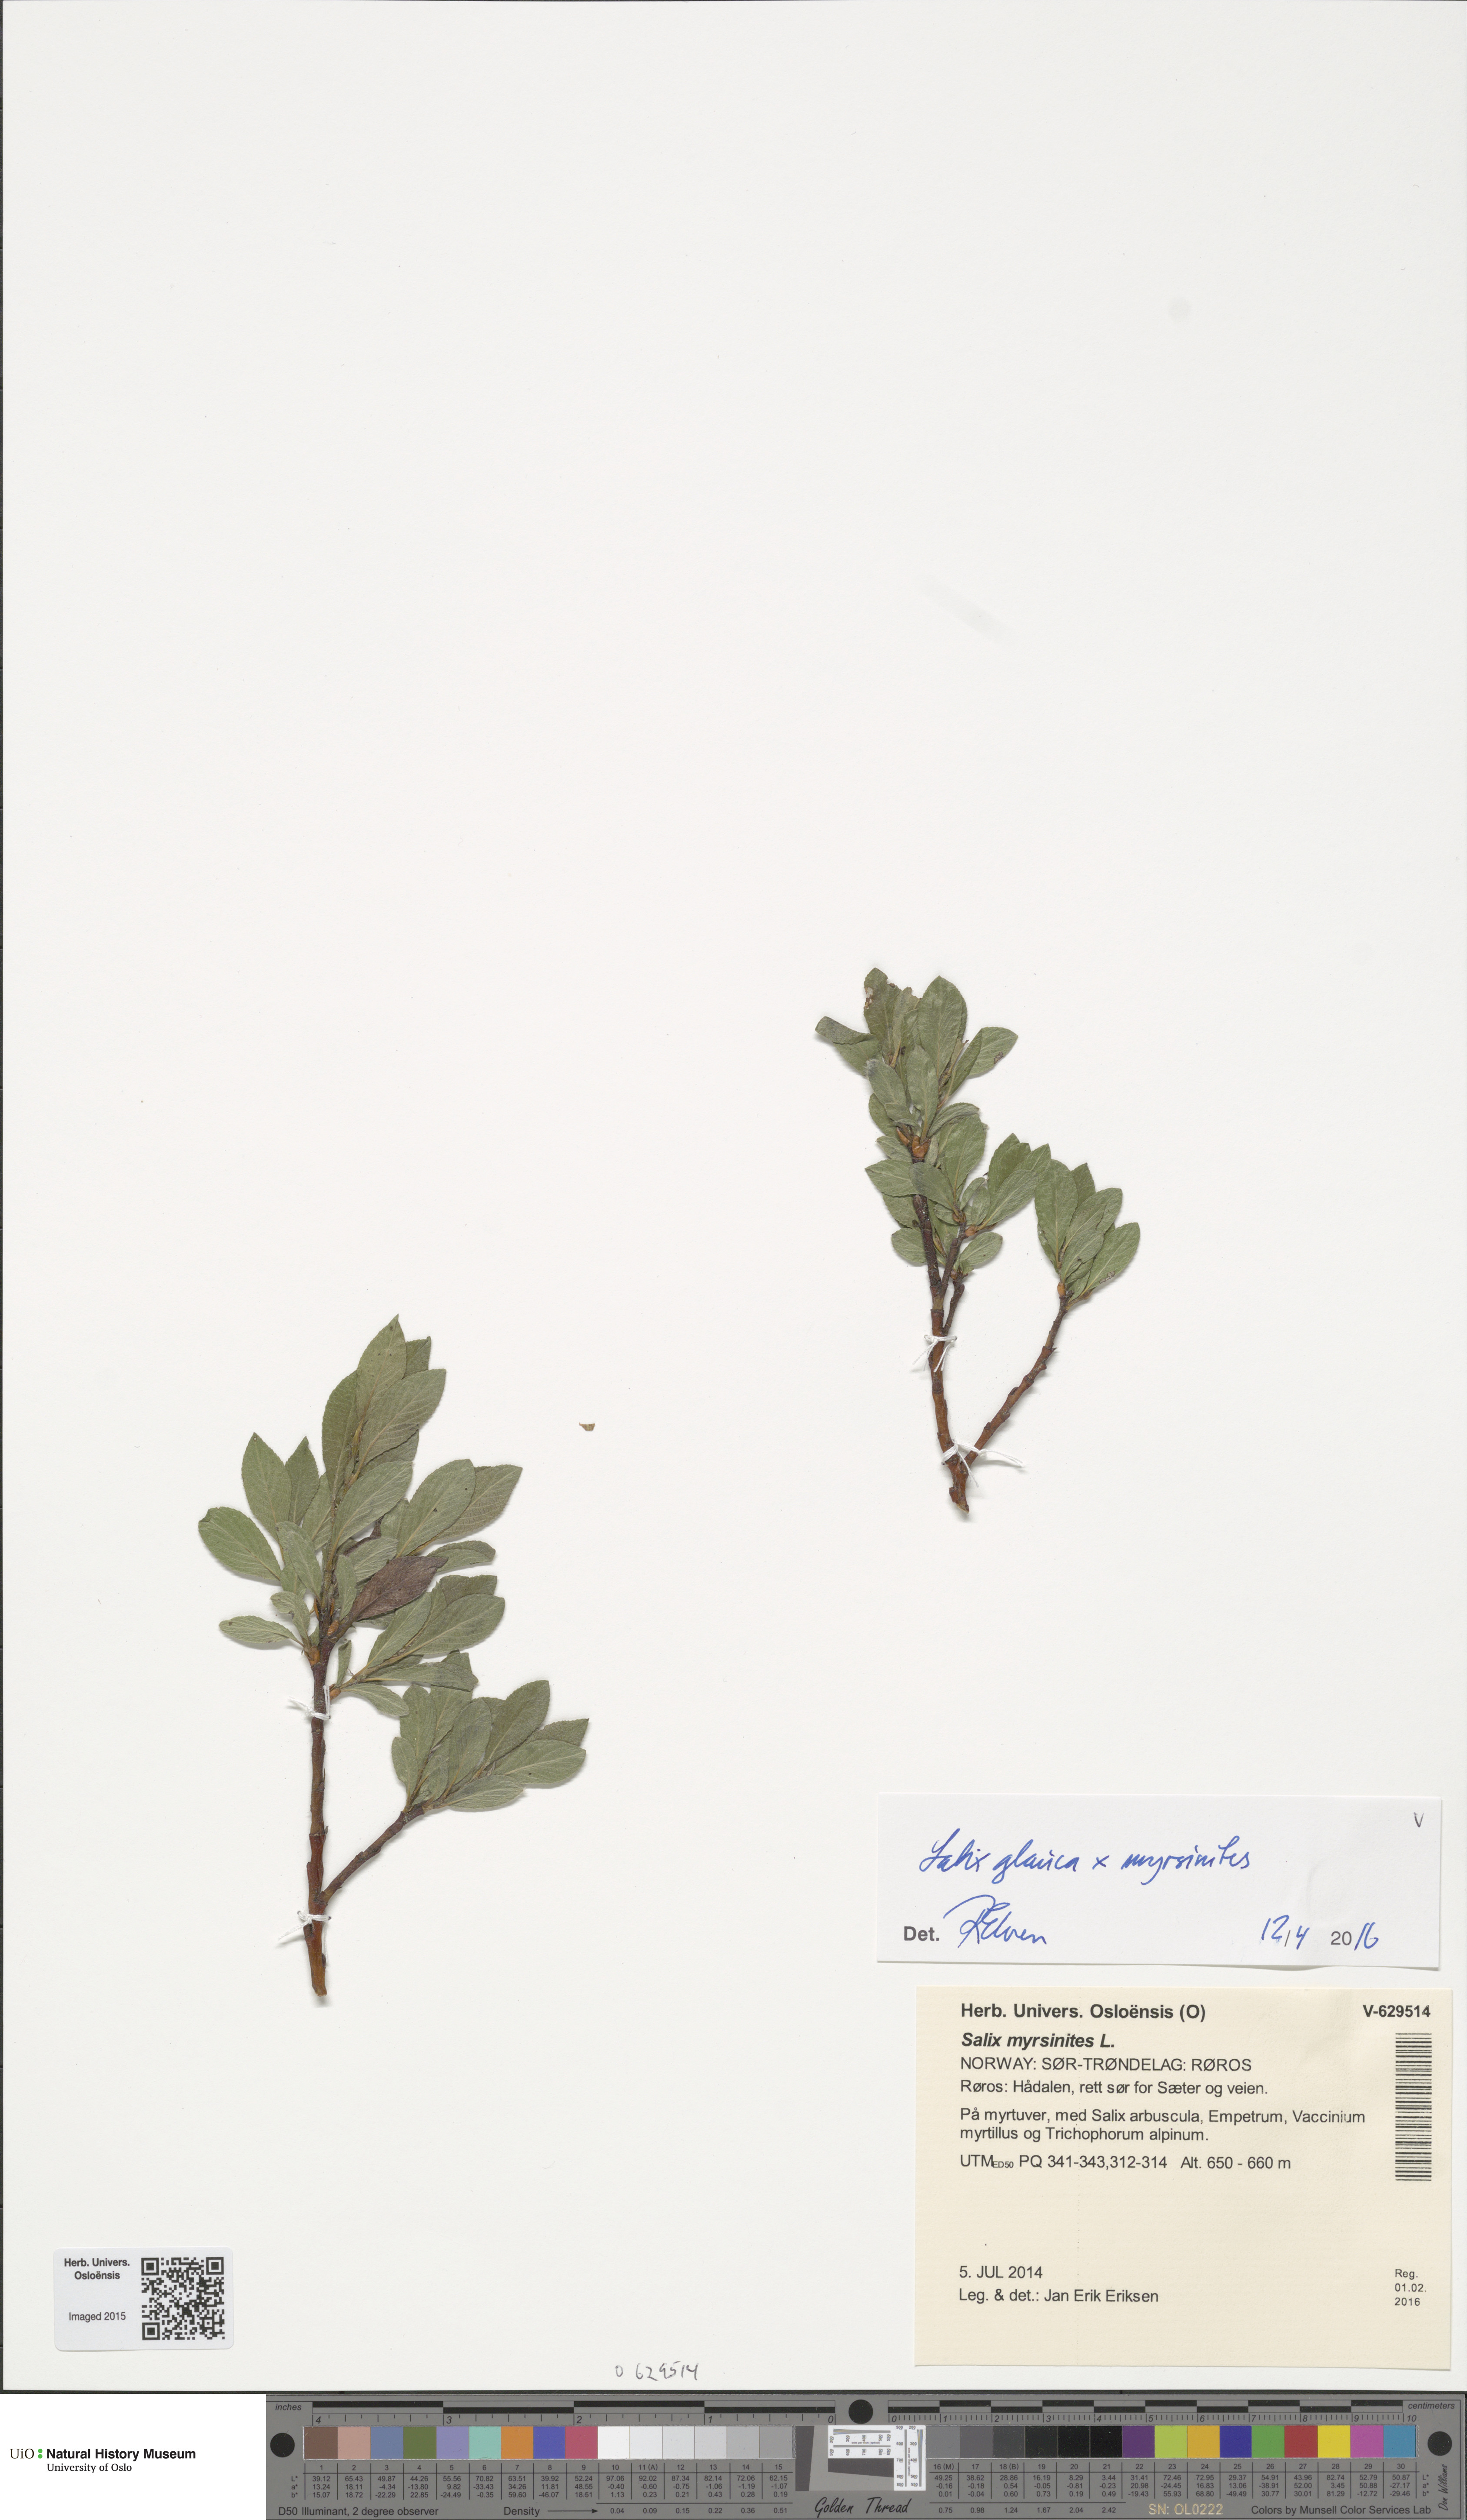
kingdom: Plantae
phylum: Tracheophyta
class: Magnoliopsida
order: Malpighiales
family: Salicaceae
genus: Salix
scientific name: Salix
